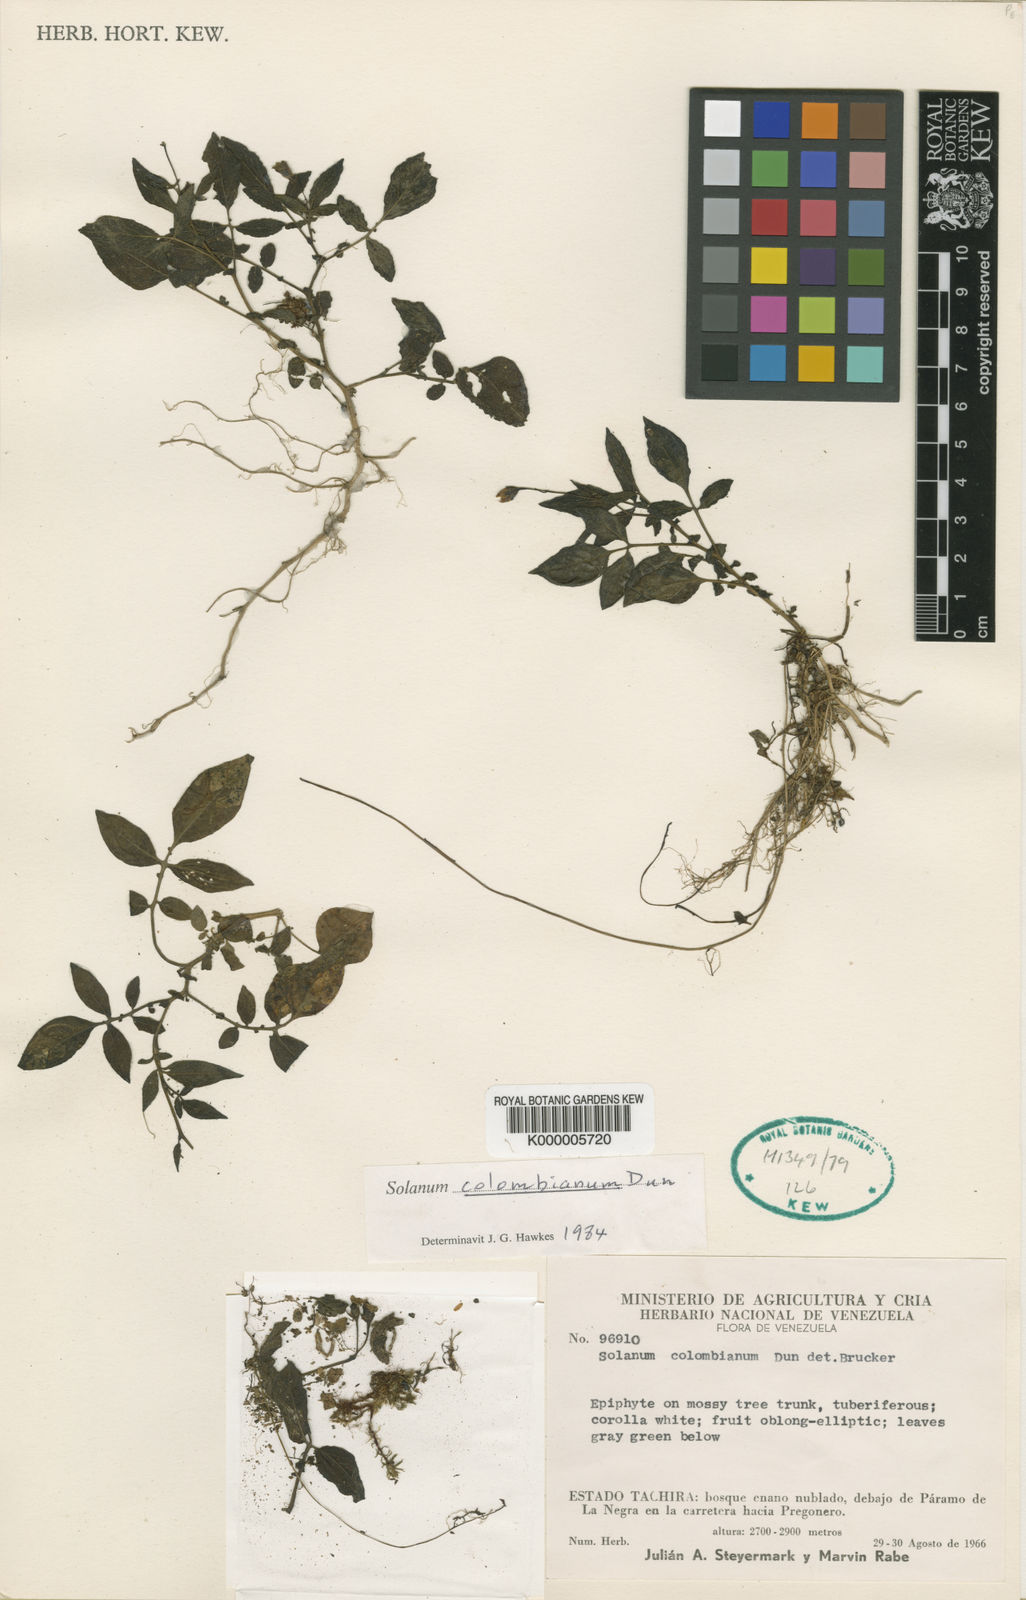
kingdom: Plantae
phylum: Tracheophyta
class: Magnoliopsida
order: Solanales
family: Solanaceae
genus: Solanum
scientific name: Solanum colombianum
